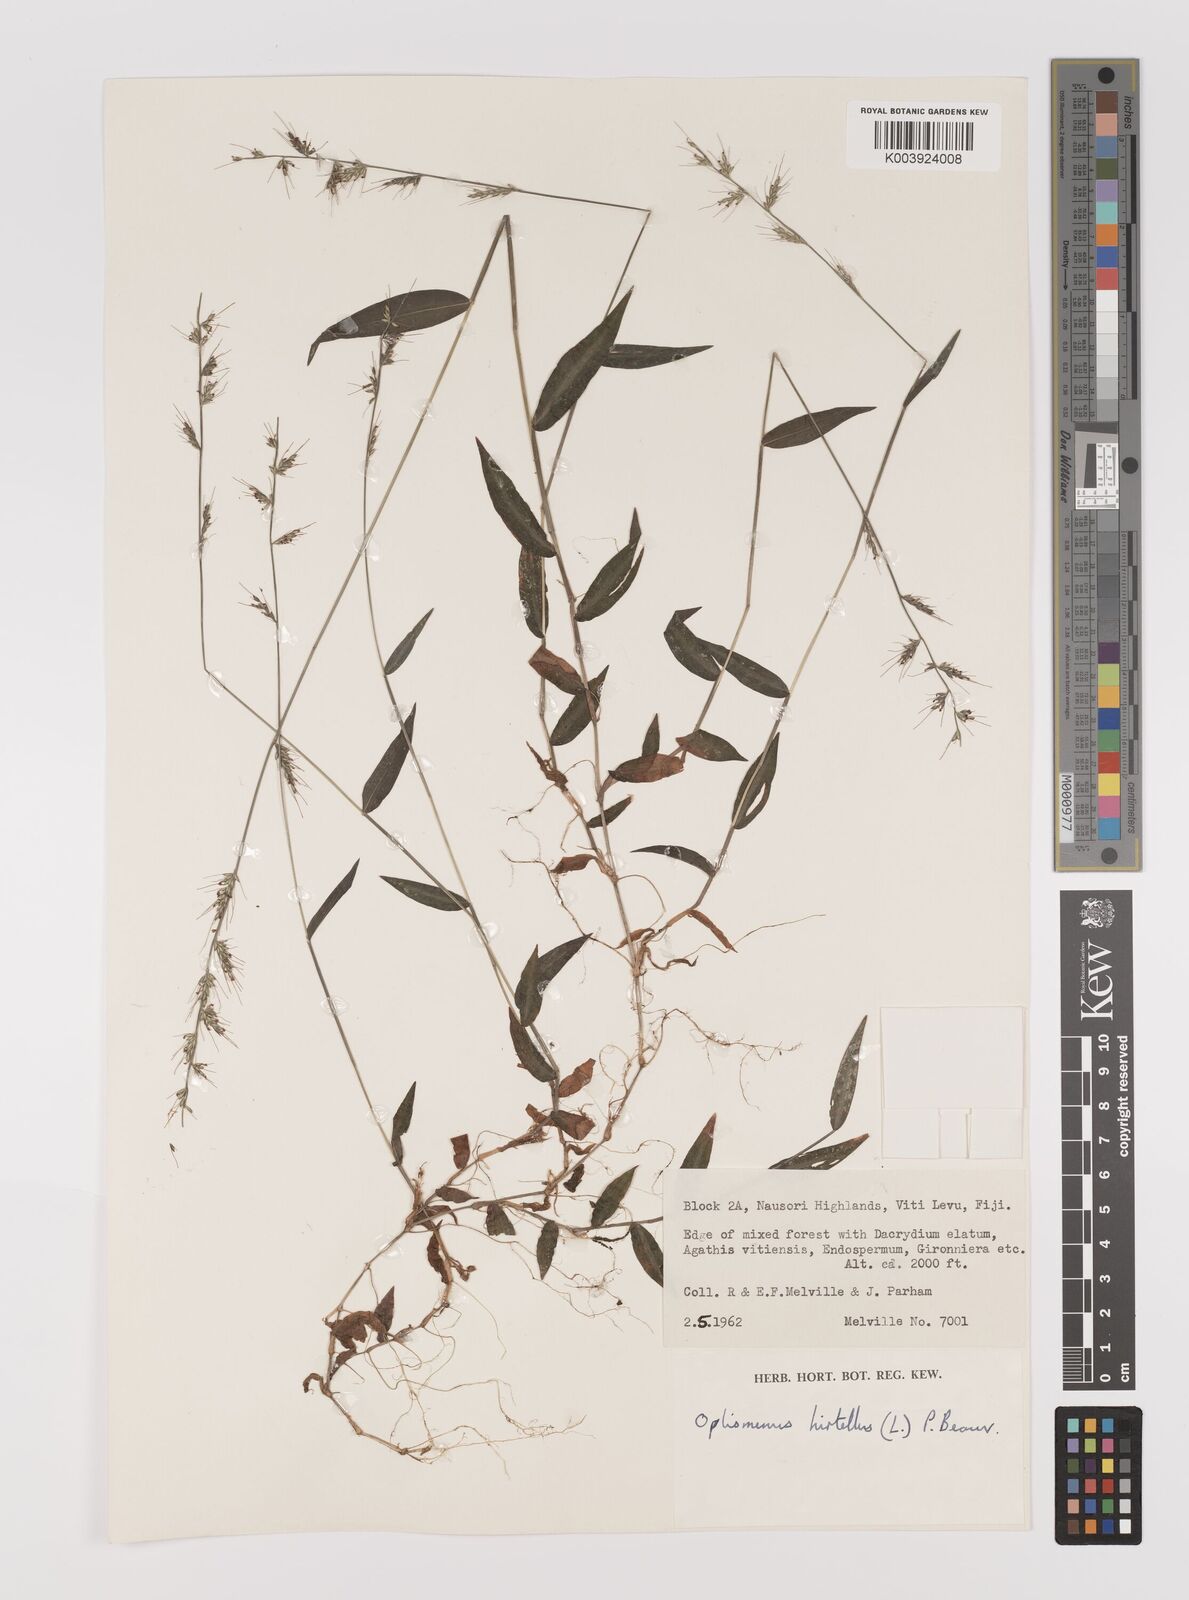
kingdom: Plantae
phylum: Tracheophyta
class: Liliopsida
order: Poales
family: Poaceae
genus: Oplismenus
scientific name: Oplismenus hirtellus
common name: Basketgrass
